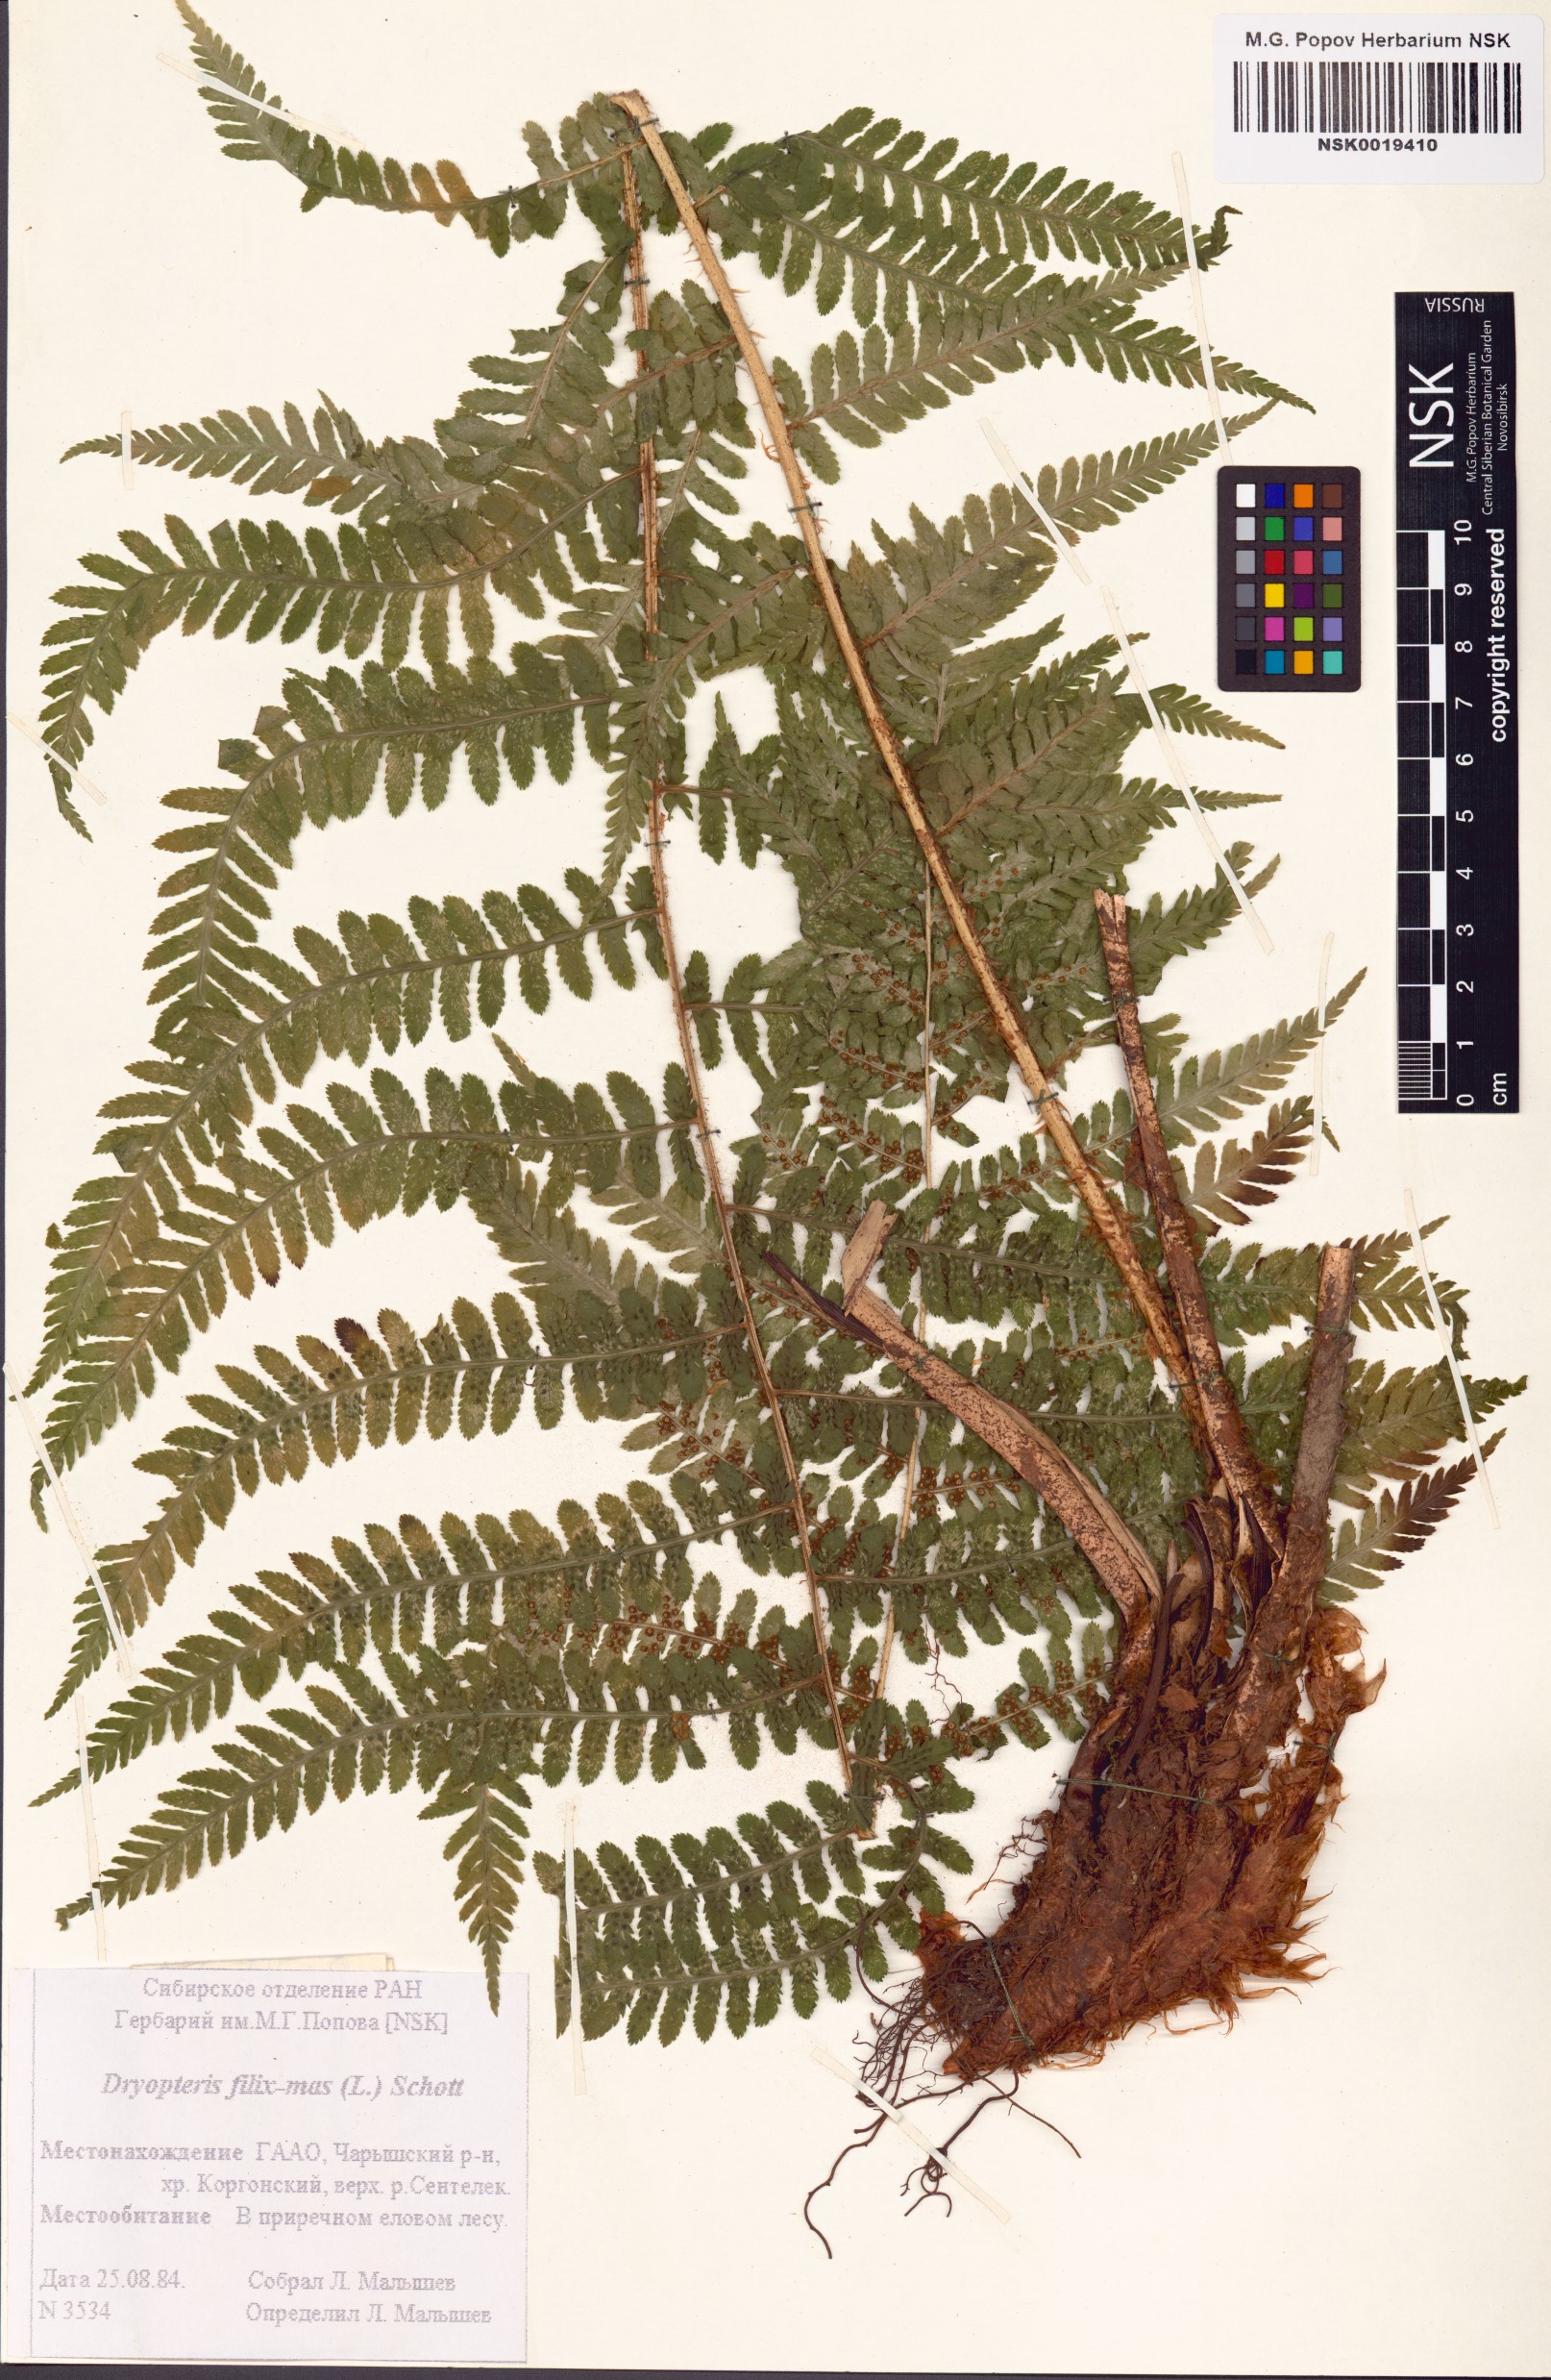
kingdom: Plantae
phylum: Tracheophyta
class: Polypodiopsida
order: Polypodiales
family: Dryopteridaceae
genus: Dryopteris
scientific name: Dryopteris filix-mas
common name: Male fern
